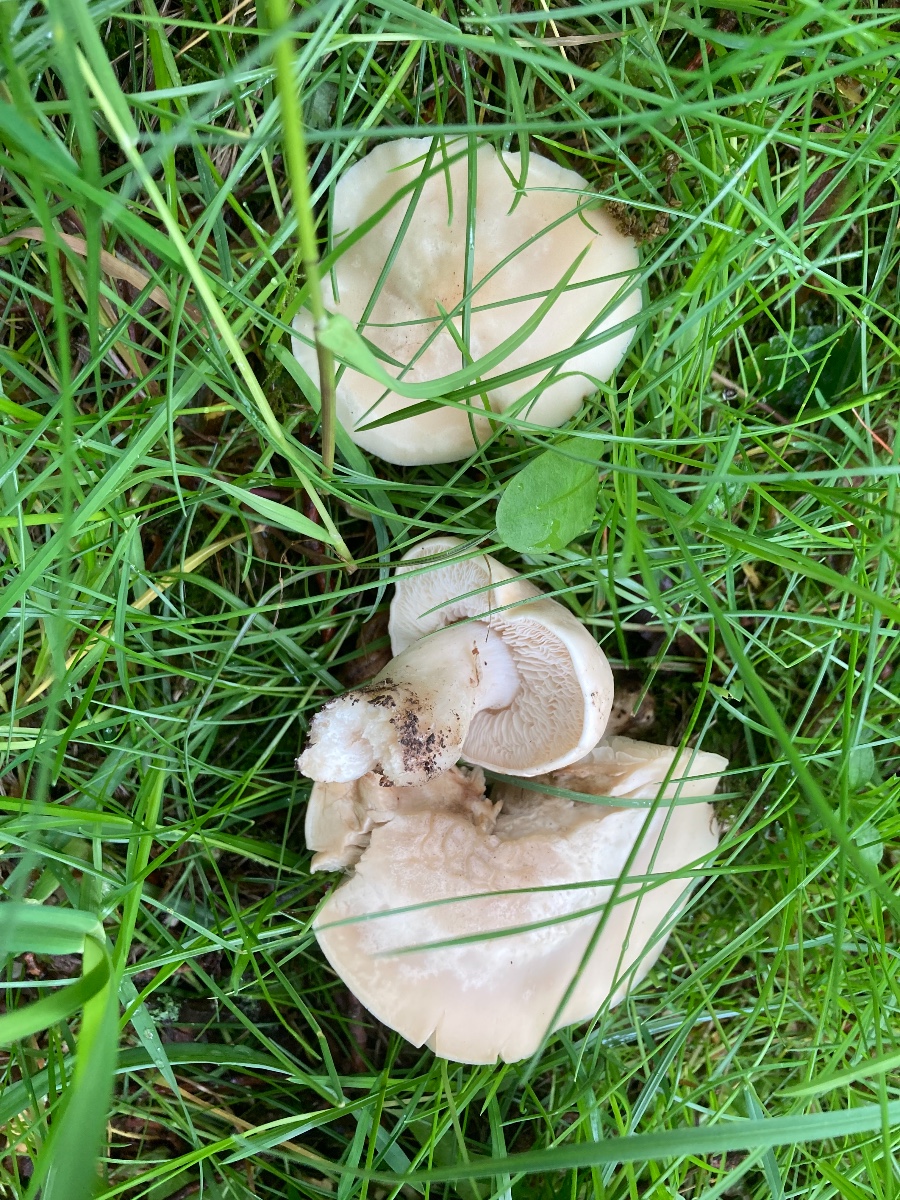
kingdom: Fungi
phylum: Basidiomycota
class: Agaricomycetes
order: Agaricales
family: Lyophyllaceae
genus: Calocybe
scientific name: Calocybe gambosa
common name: vårmusseron
